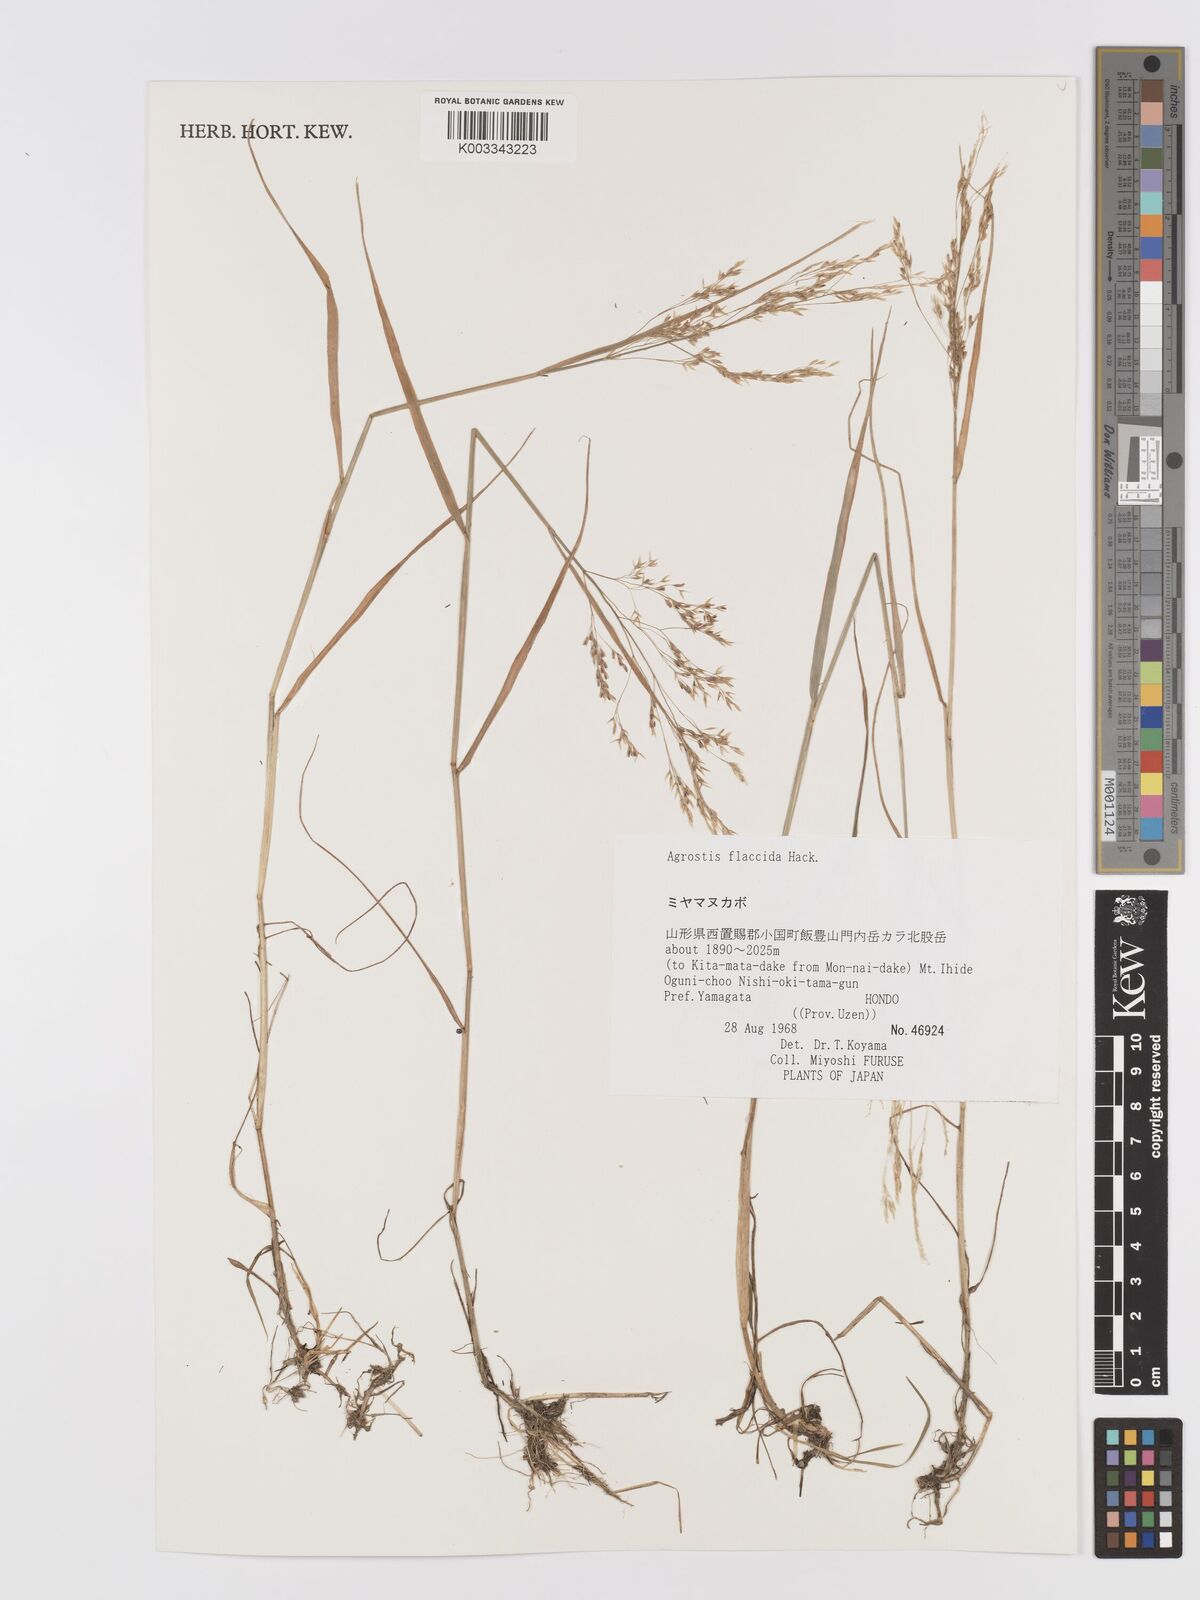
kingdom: Plantae
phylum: Tracheophyta
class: Liliopsida
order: Poales
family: Poaceae
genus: Agrostis
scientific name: Agrostis flaccida
